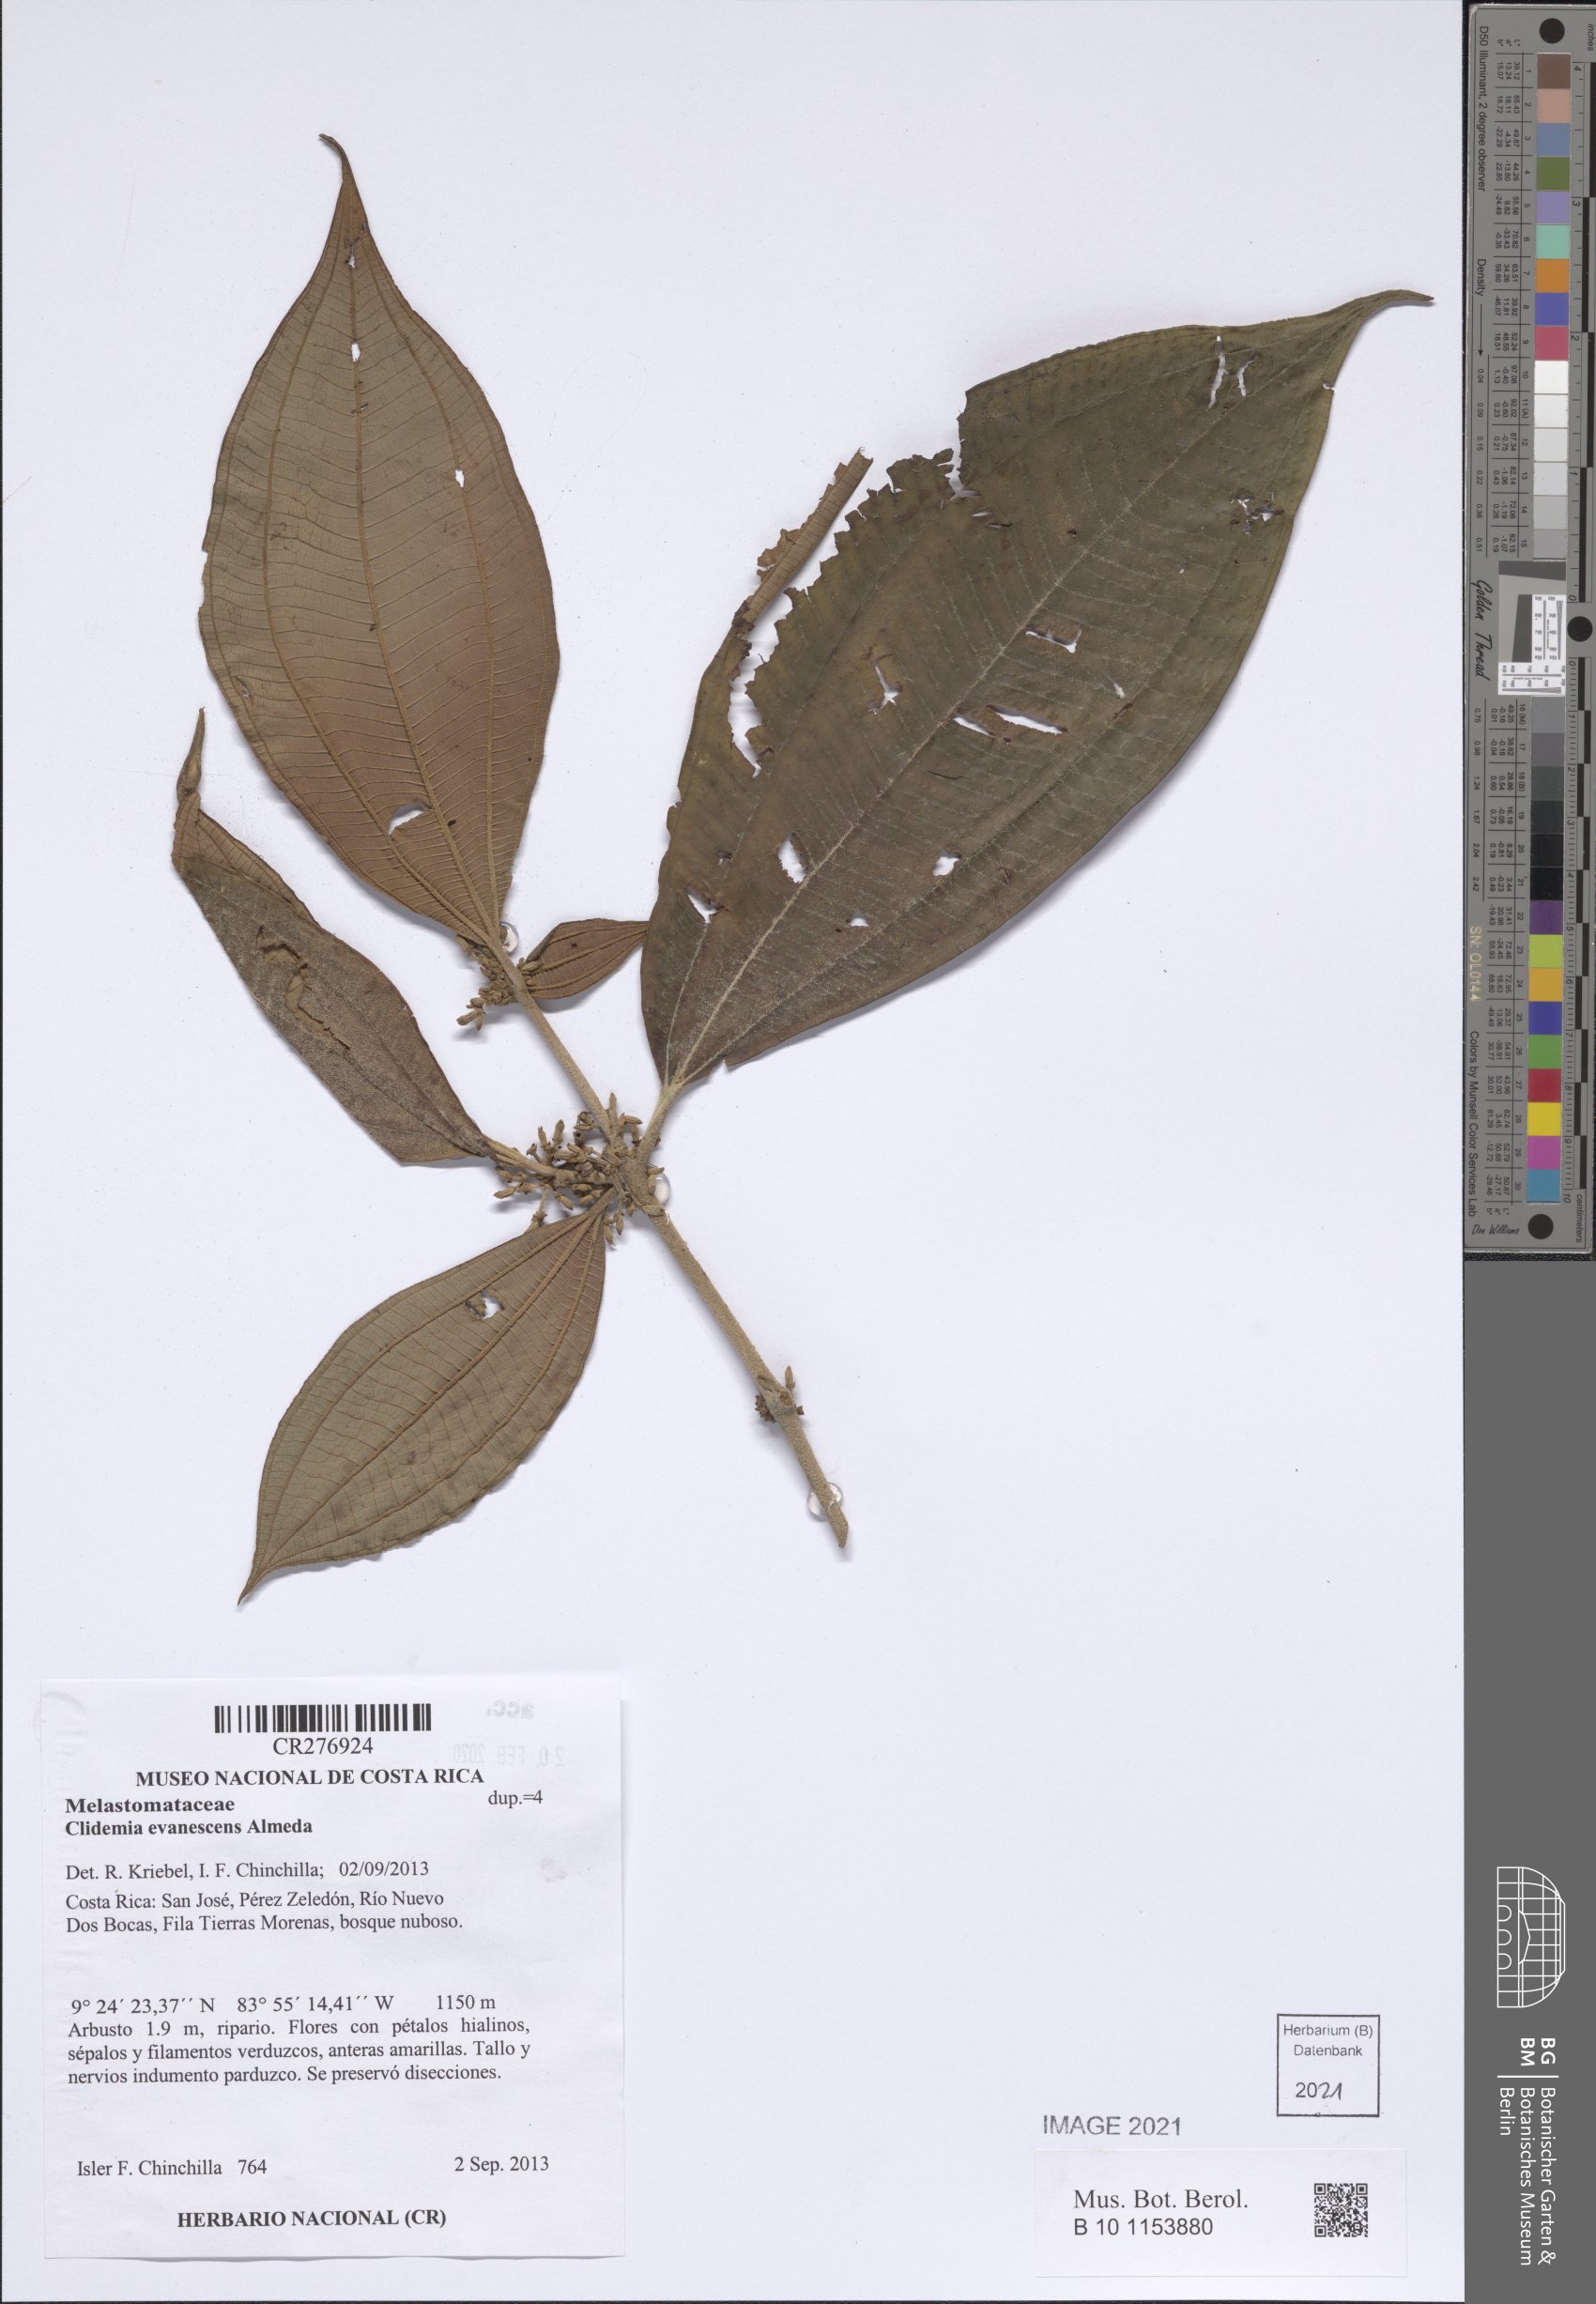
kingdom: Plantae
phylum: Tracheophyta
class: Magnoliopsida
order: Myrtales
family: Melastomataceae
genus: Miconia
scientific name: Miconia evanescens
